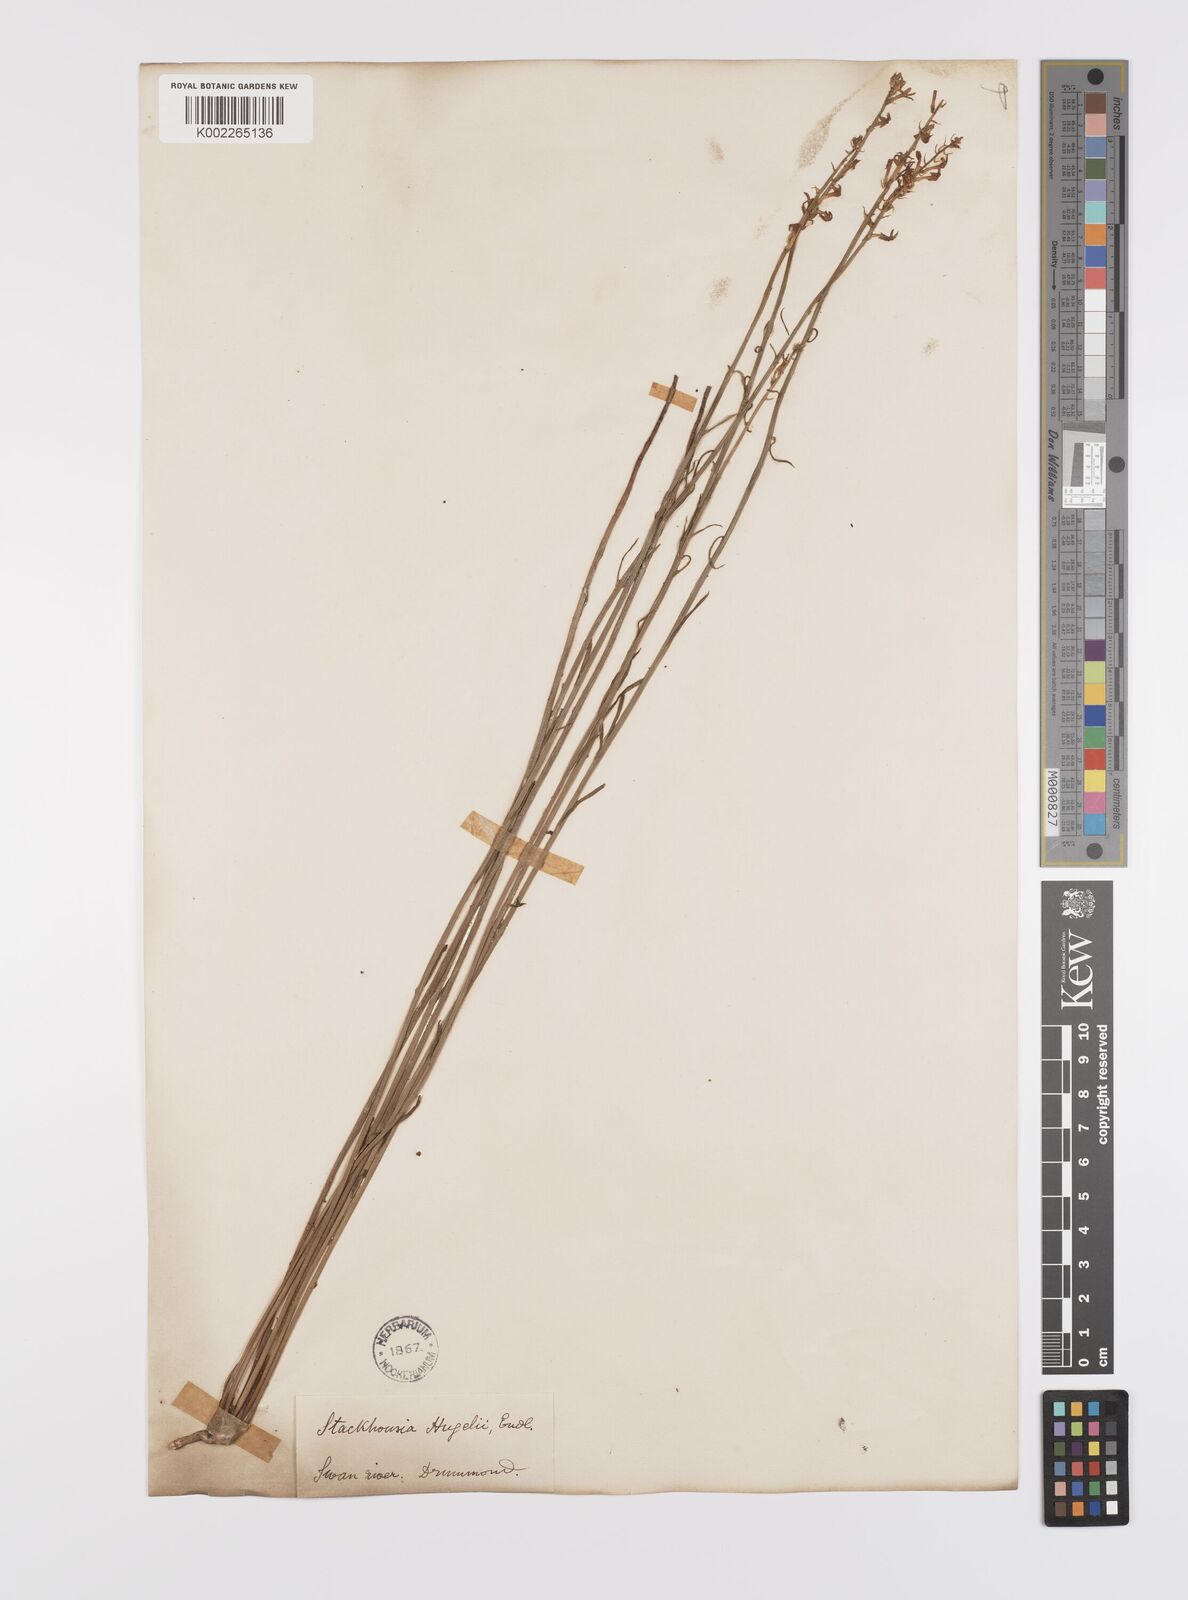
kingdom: Plantae
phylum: Tracheophyta
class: Magnoliopsida
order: Celastrales
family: Celastraceae
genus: Stackhousia
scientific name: Stackhousia monogyna
